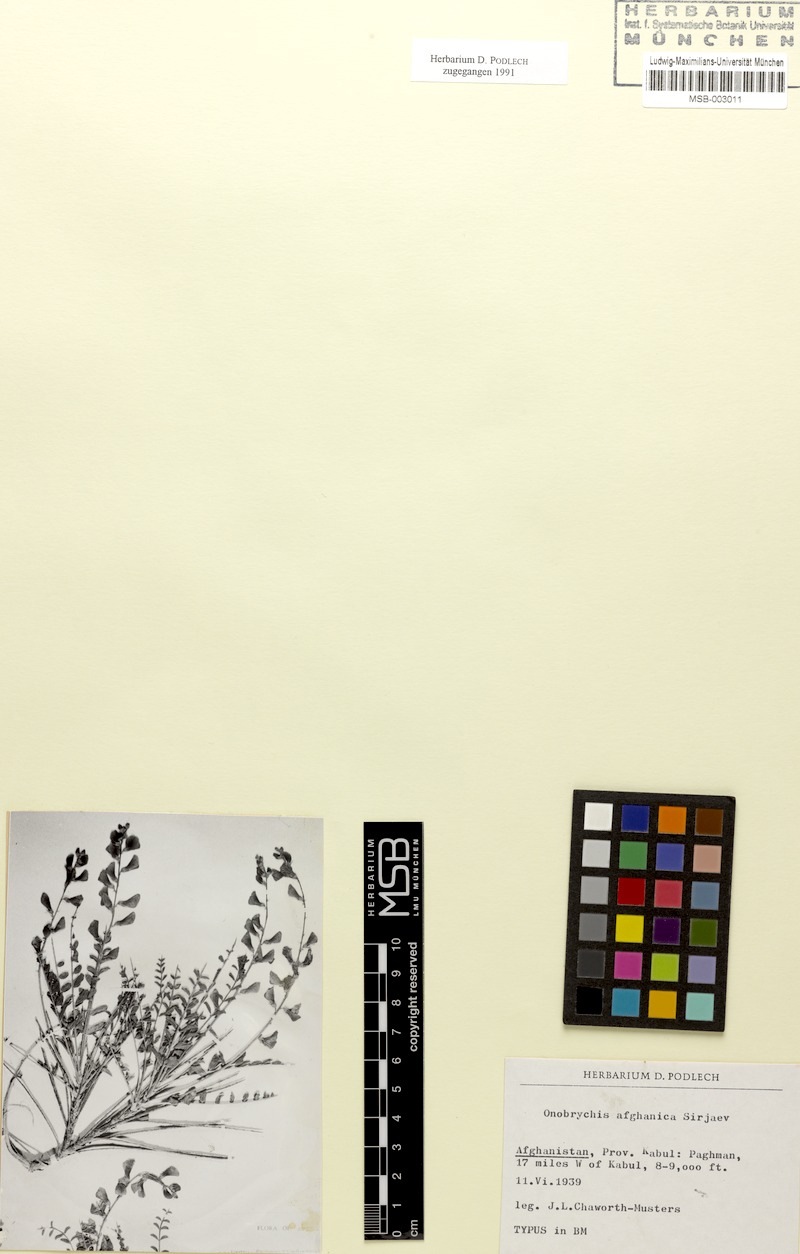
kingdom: Plantae
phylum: Tracheophyta
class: Magnoliopsida
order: Fabales
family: Fabaceae
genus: Onobrychis
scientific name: Onobrychis afghanica
